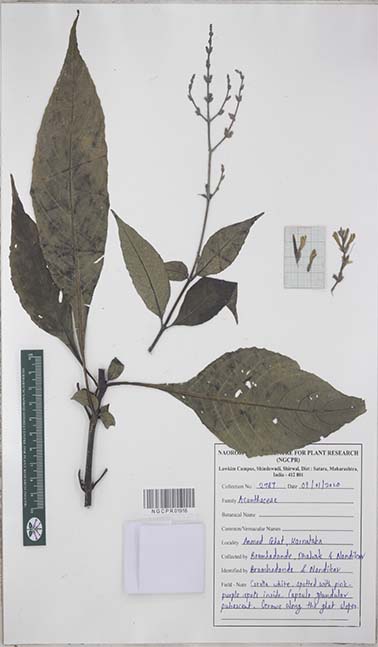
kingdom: Plantae
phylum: Tracheophyta
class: Magnoliopsida
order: Lamiales
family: Acanthaceae
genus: Gymnostachyum
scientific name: Gymnostachyum glabrum
